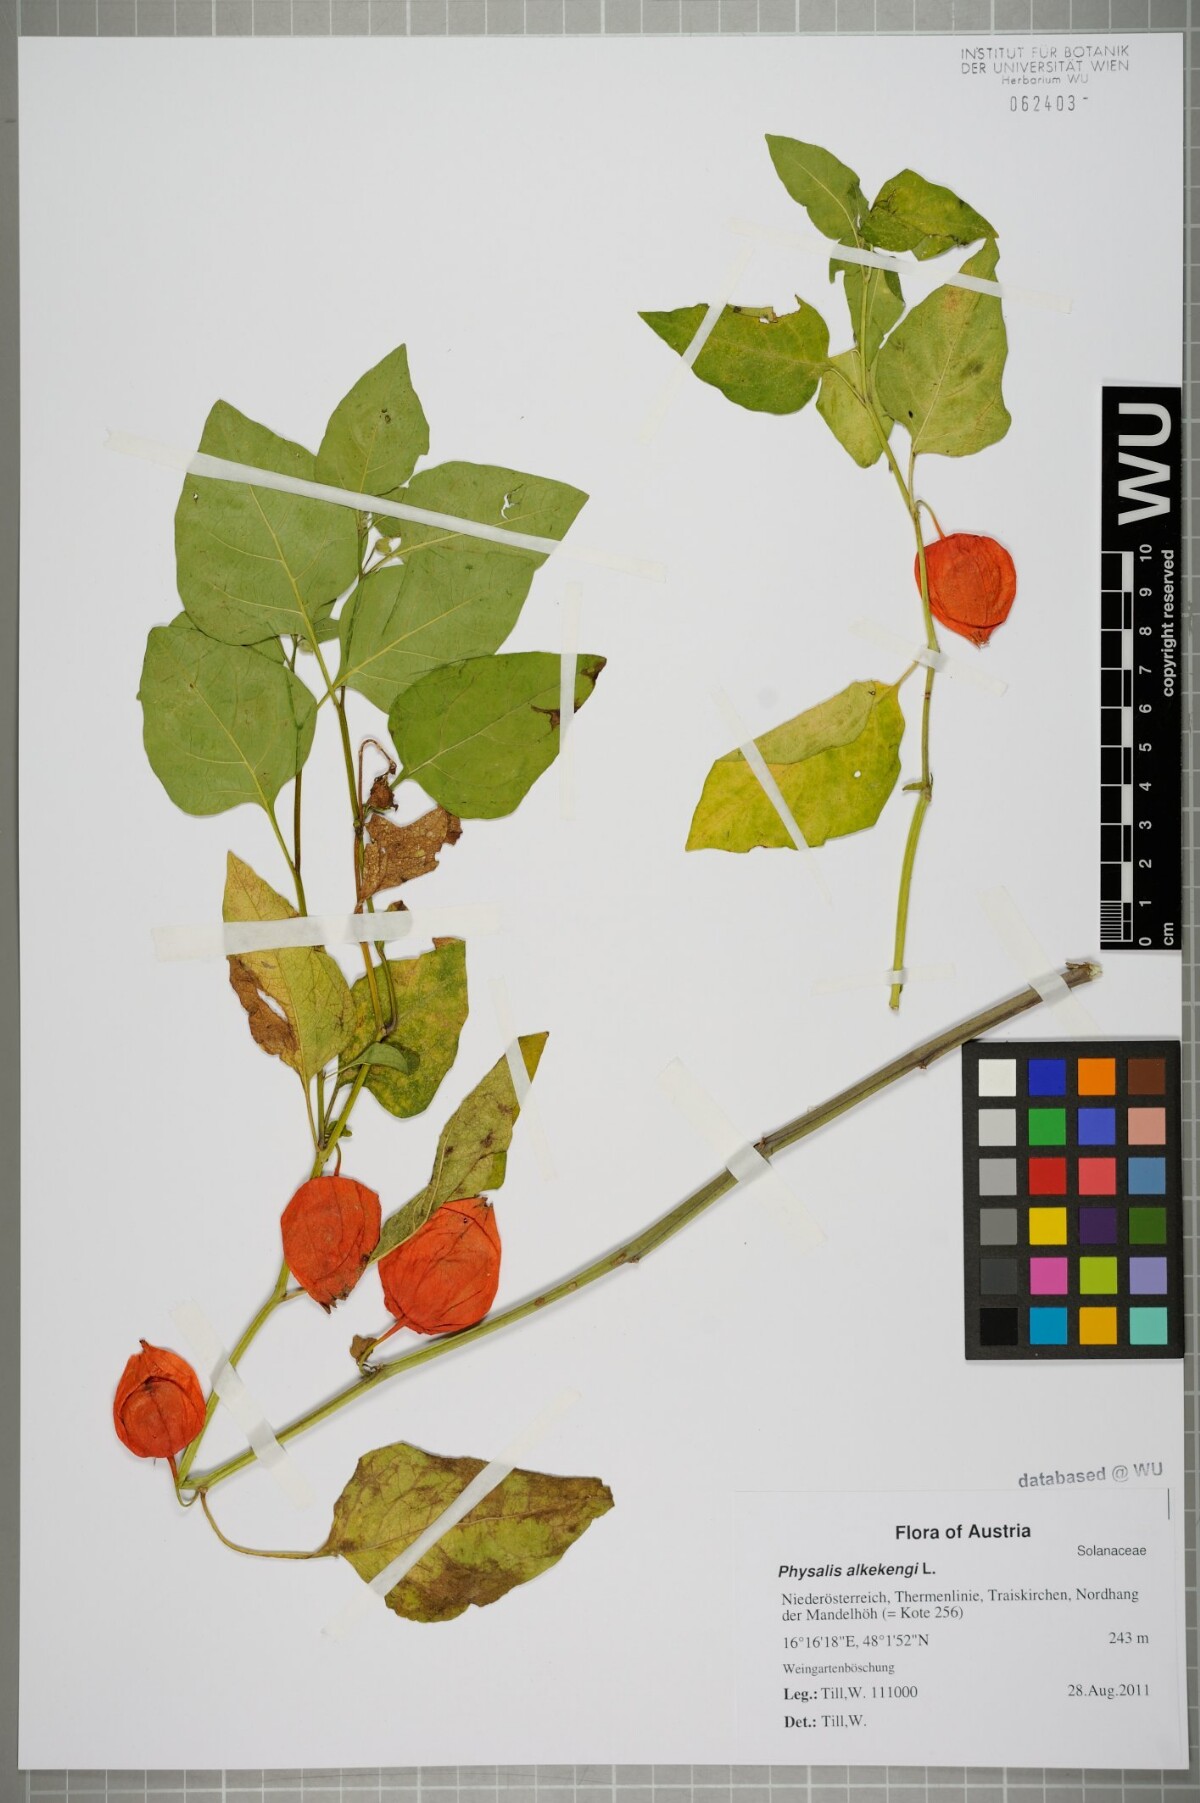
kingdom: Plantae
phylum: Tracheophyta
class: Magnoliopsida
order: Solanales
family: Solanaceae
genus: Alkekengi
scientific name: Alkekengi officinarum
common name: Japanese-lantern
